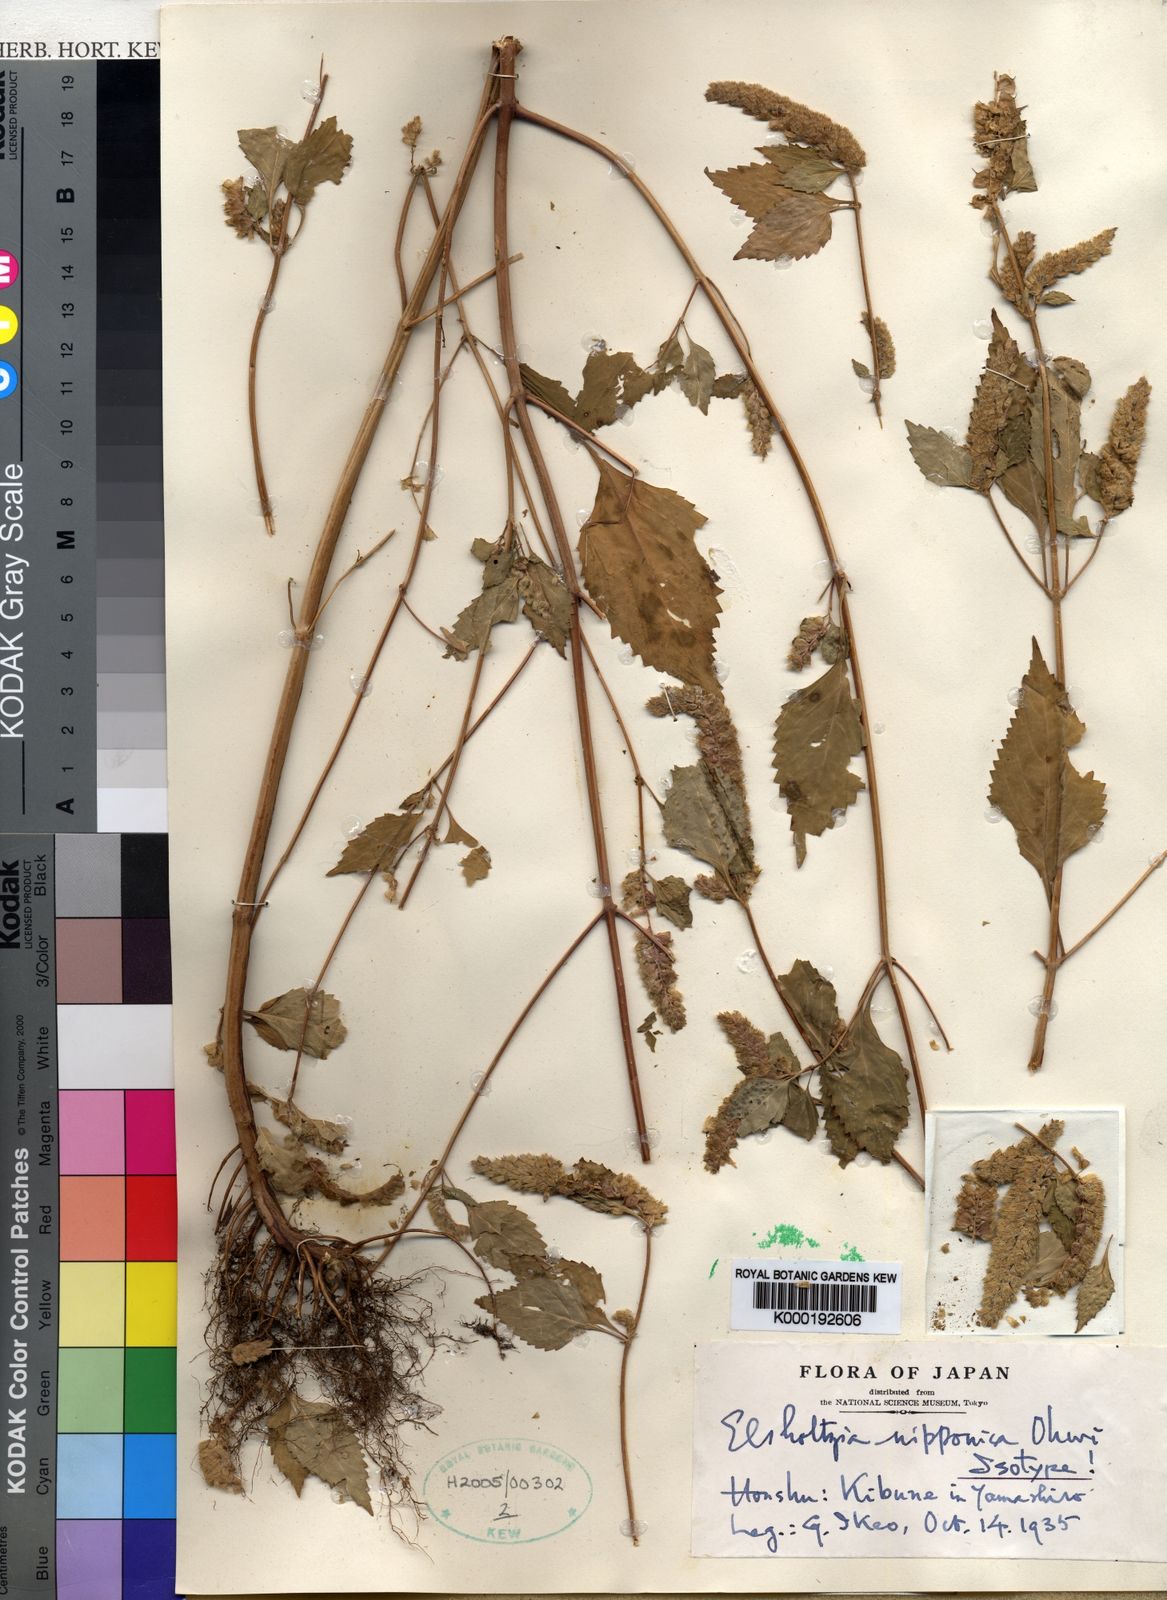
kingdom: Plantae
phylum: Tracheophyta
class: Magnoliopsida
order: Lamiales
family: Lamiaceae
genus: Elsholtzia
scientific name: Elsholtzia nipponica
